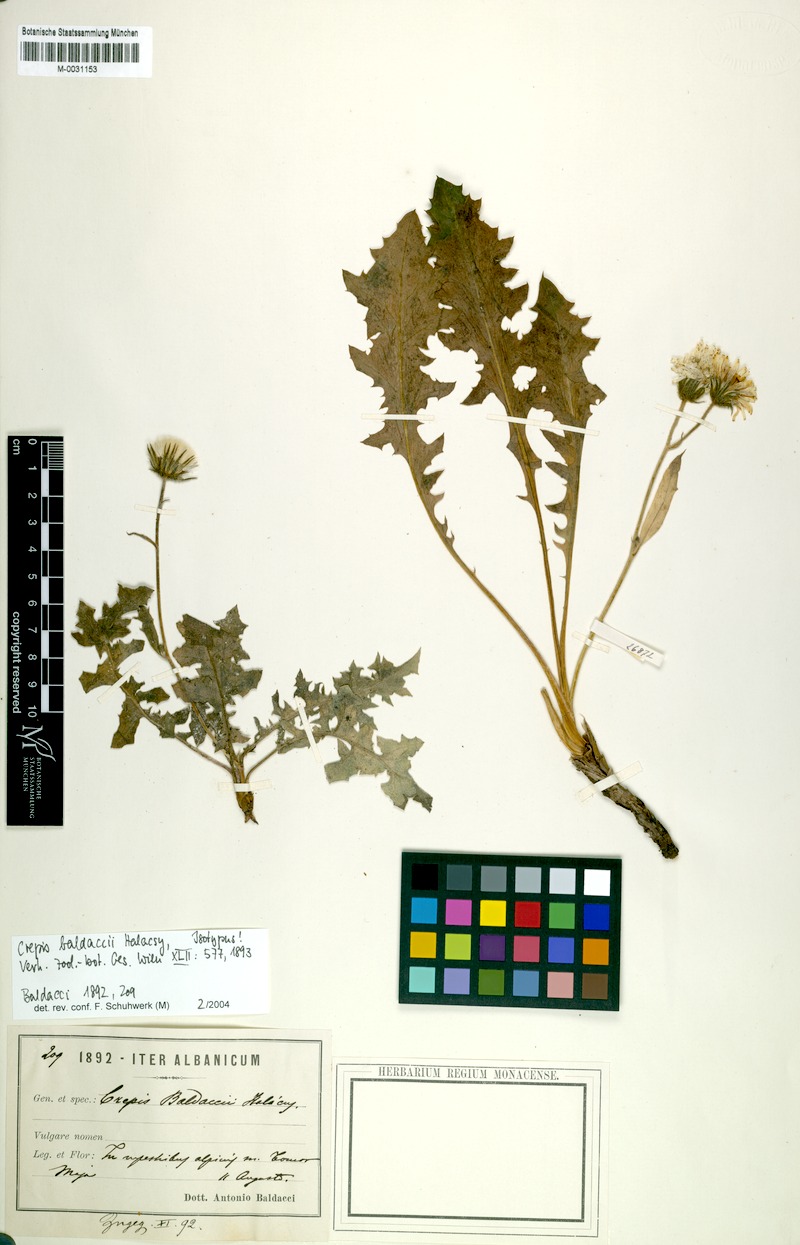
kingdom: Plantae
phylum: Tracheophyta
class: Magnoliopsida
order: Asterales
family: Asteraceae
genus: Crepis
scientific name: Crepis baldaccii
